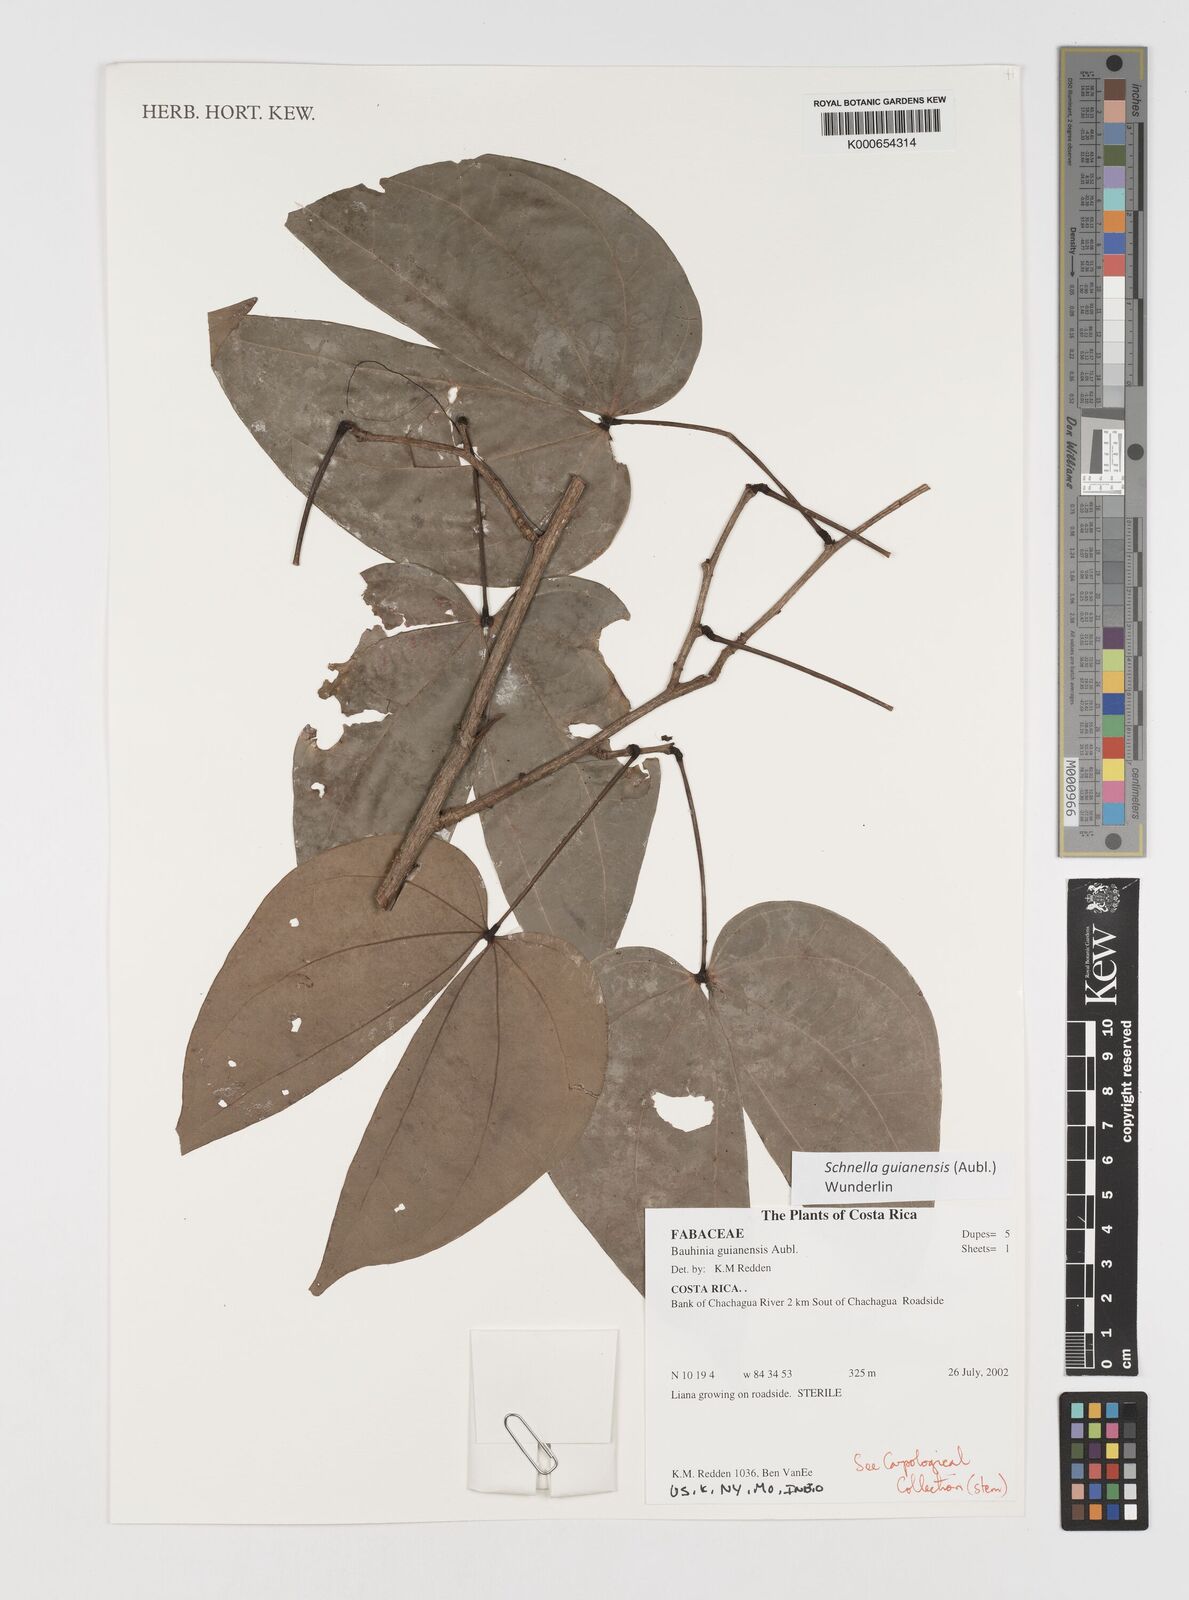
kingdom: Plantae
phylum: Tracheophyta
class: Magnoliopsida
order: Fabales
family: Fabaceae
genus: Schnella
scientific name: Schnella guianensis
